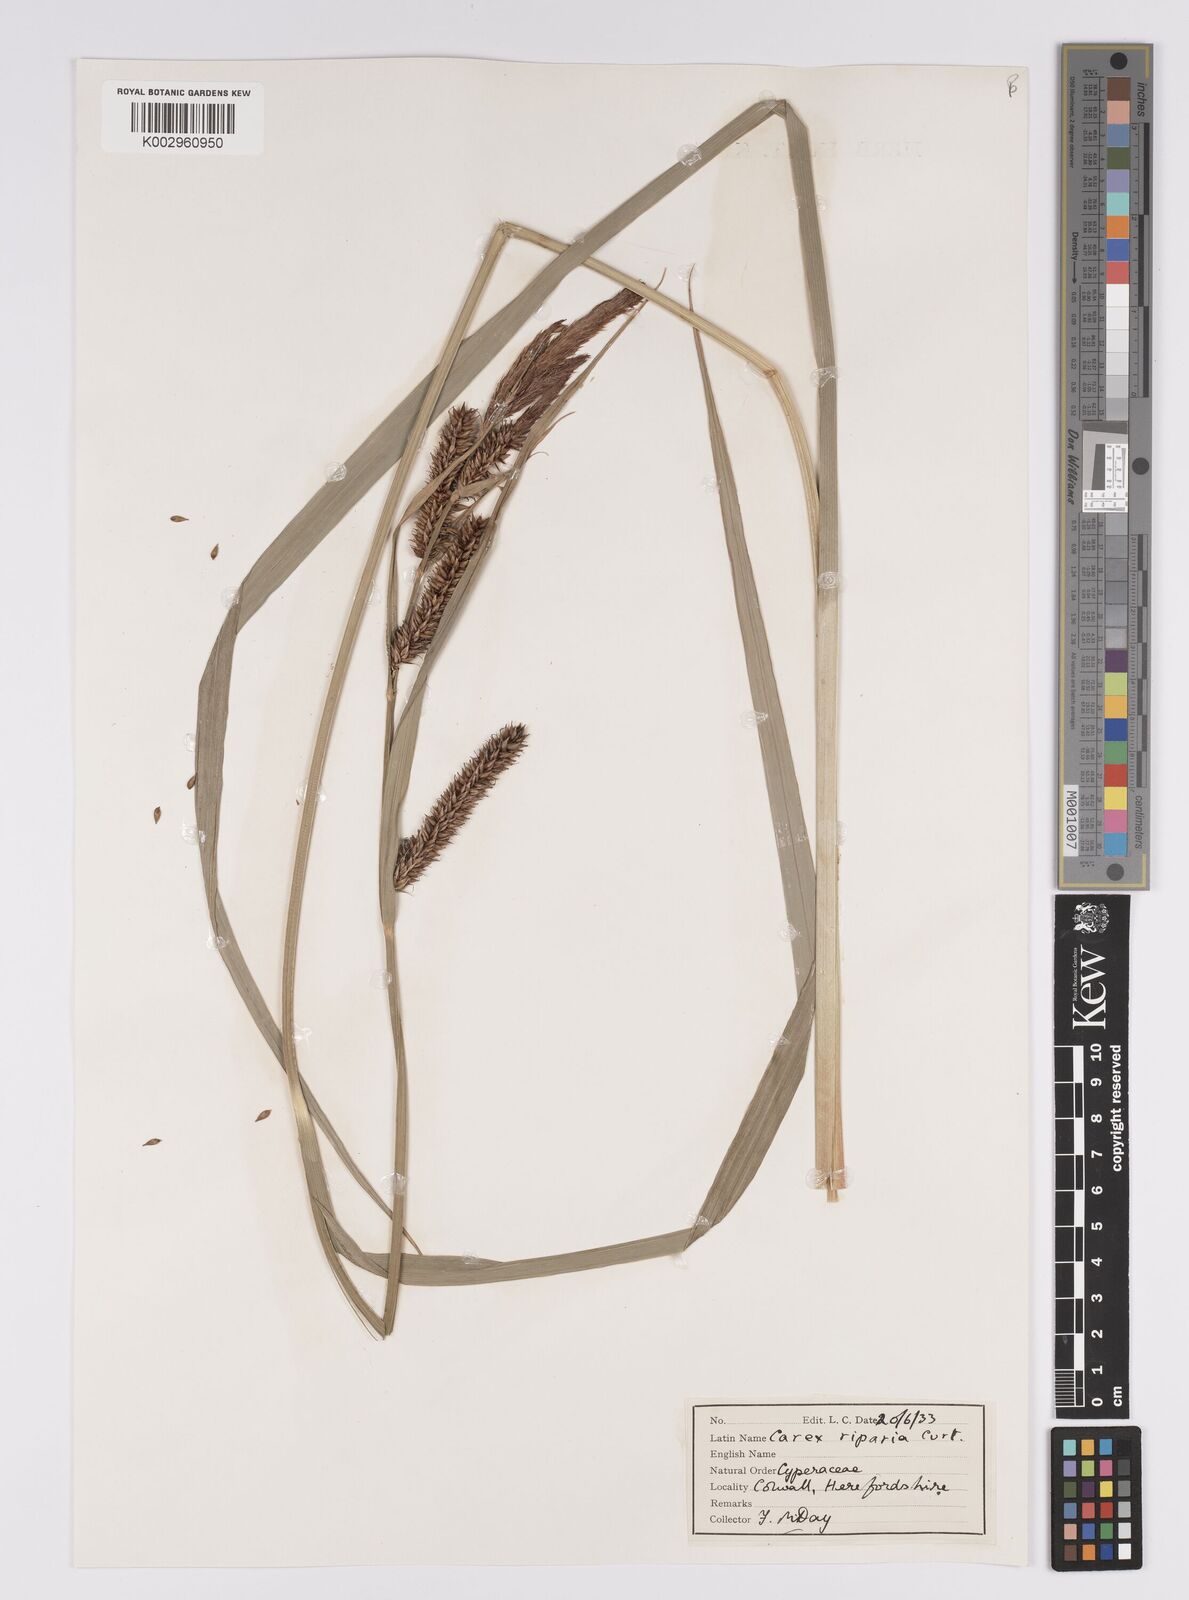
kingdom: Plantae
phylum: Tracheophyta
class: Liliopsida
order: Poales
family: Cyperaceae
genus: Carex
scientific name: Carex riparia
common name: Greater pond-sedge
